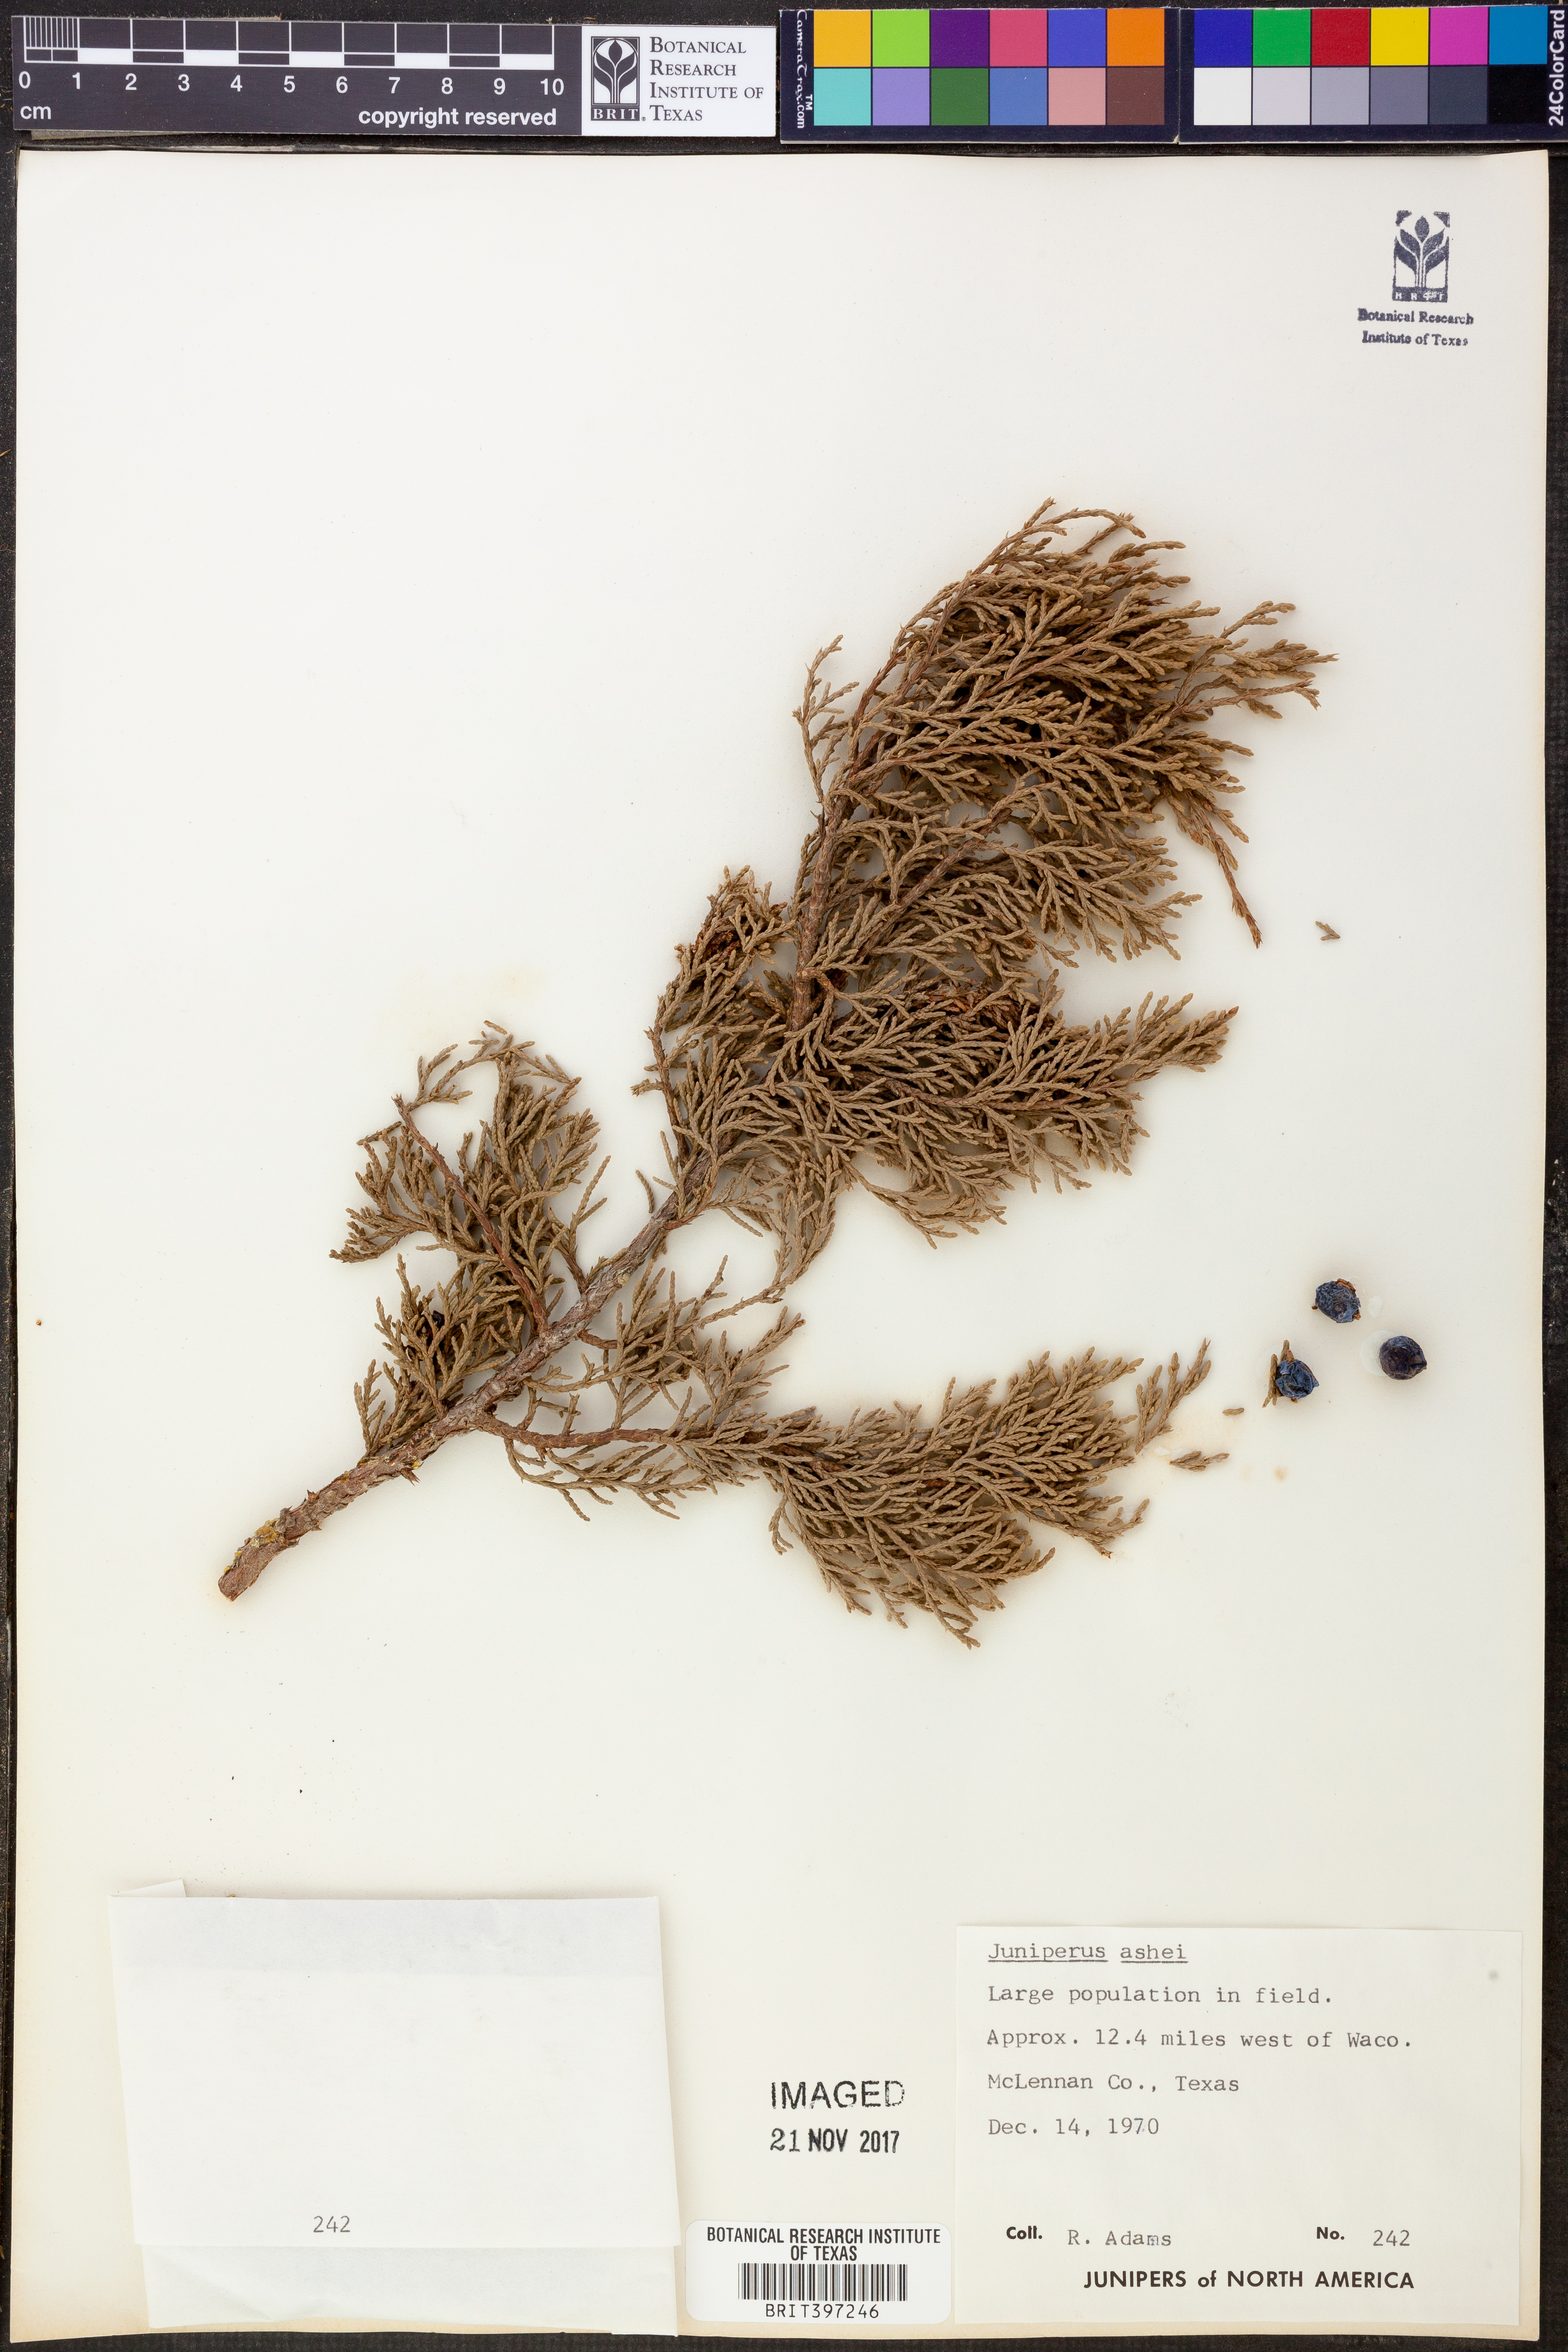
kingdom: Plantae
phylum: Tracheophyta
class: Pinopsida
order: Pinales
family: Cupressaceae
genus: Juniperus
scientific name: Juniperus ashei
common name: Mexican juniper
